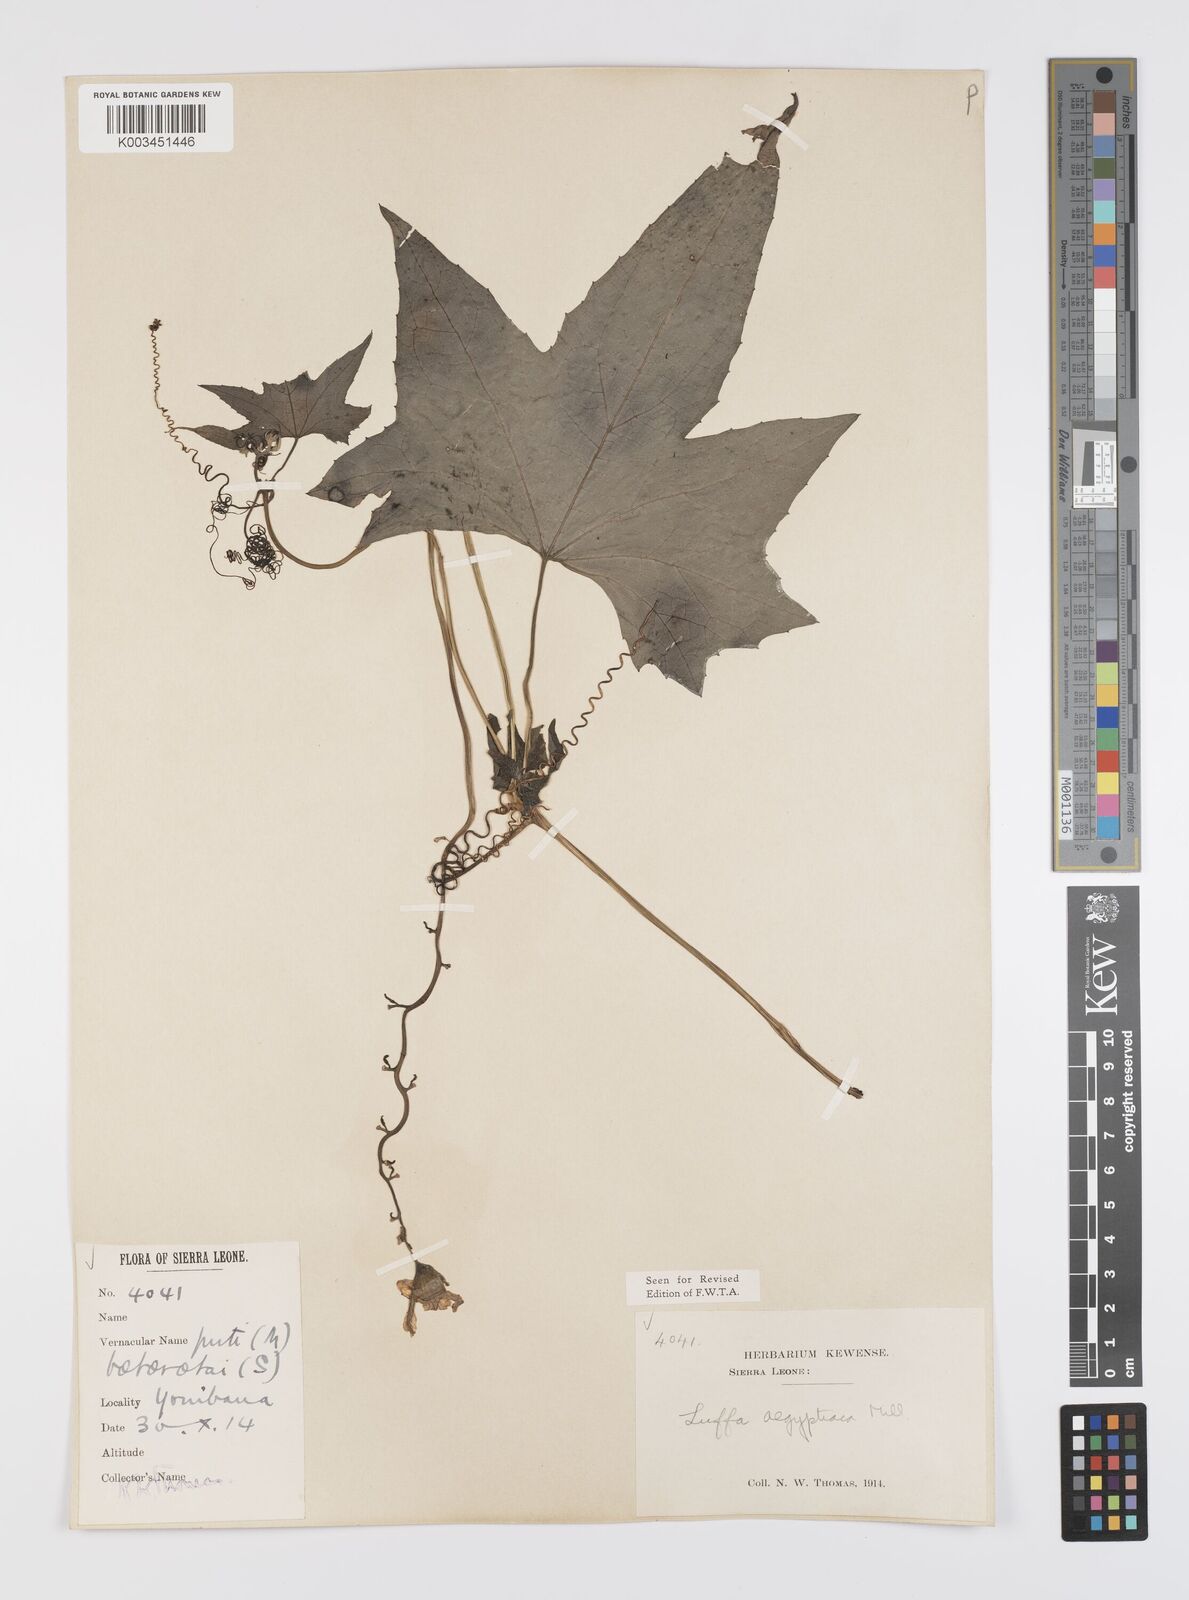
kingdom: Plantae
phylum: Tracheophyta
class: Magnoliopsida
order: Cucurbitales
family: Cucurbitaceae
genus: Luffa
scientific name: Luffa aegyptiaca
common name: Sponge gourd
